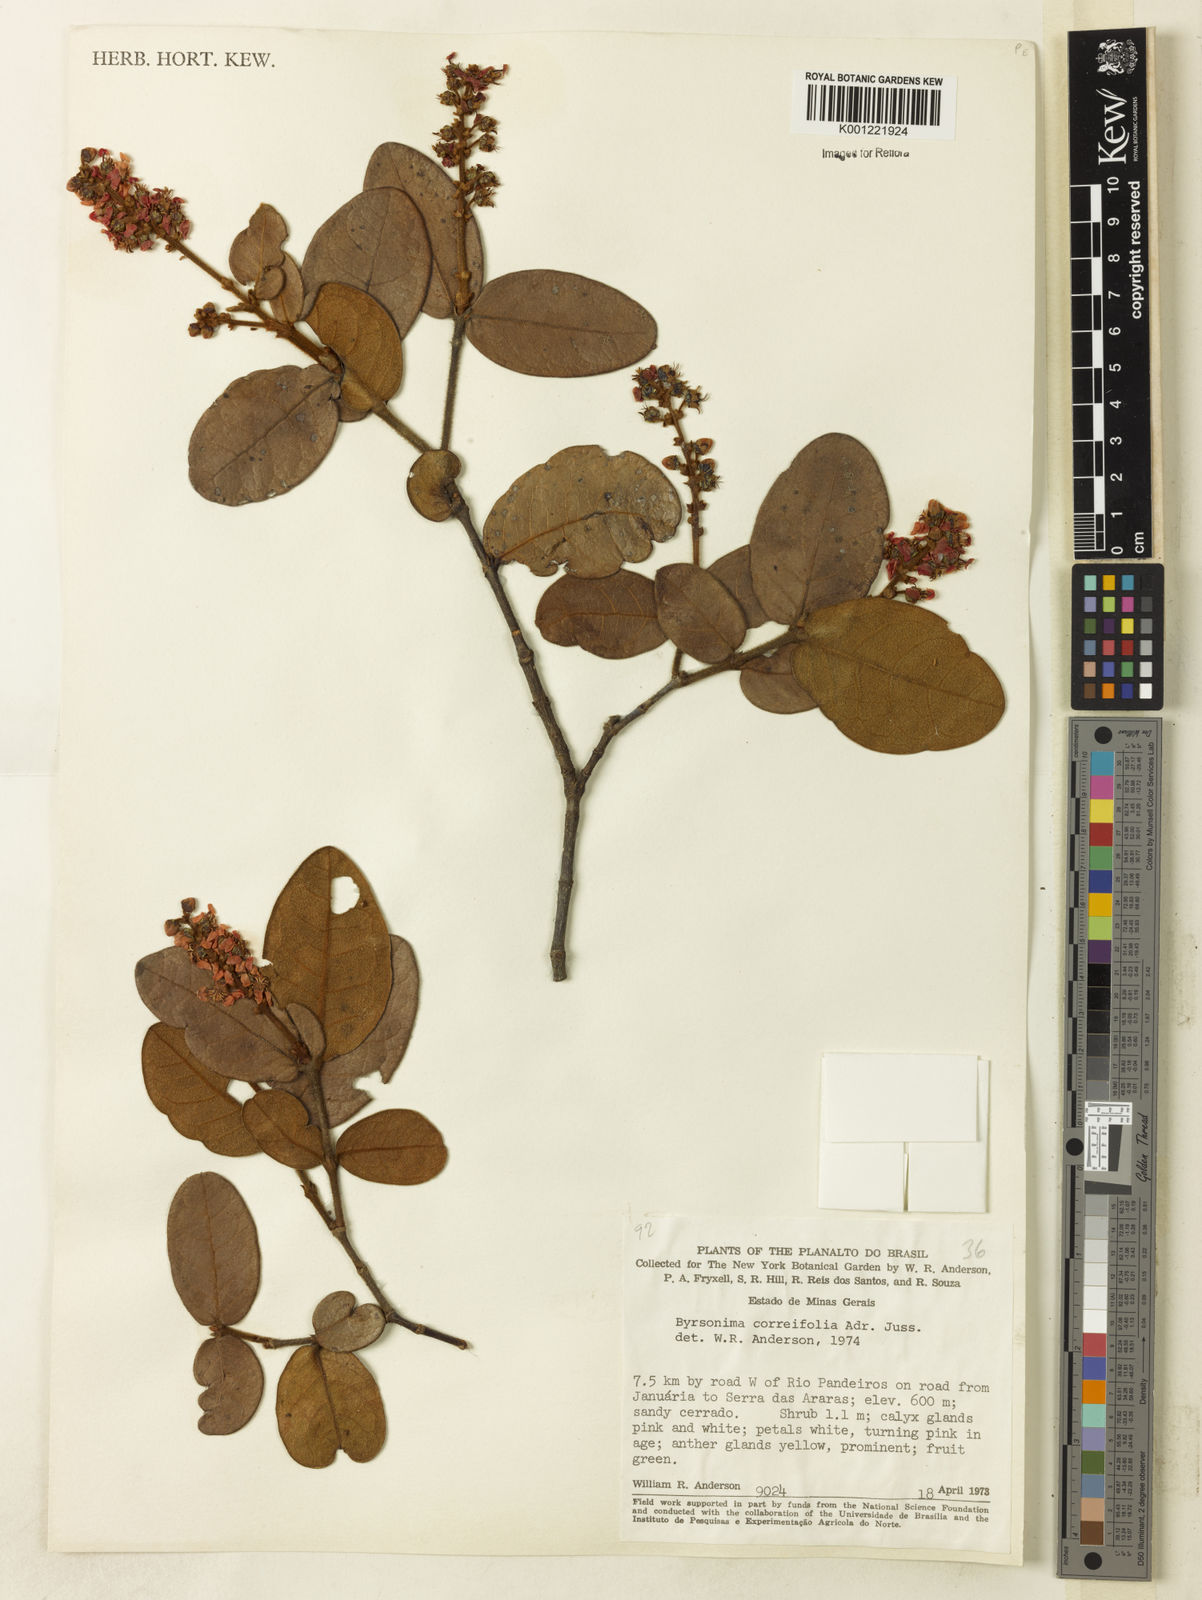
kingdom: Plantae
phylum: Tracheophyta
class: Magnoliopsida
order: Malpighiales
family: Malpighiaceae
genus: Byrsonima
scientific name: Byrsonima correifolia
